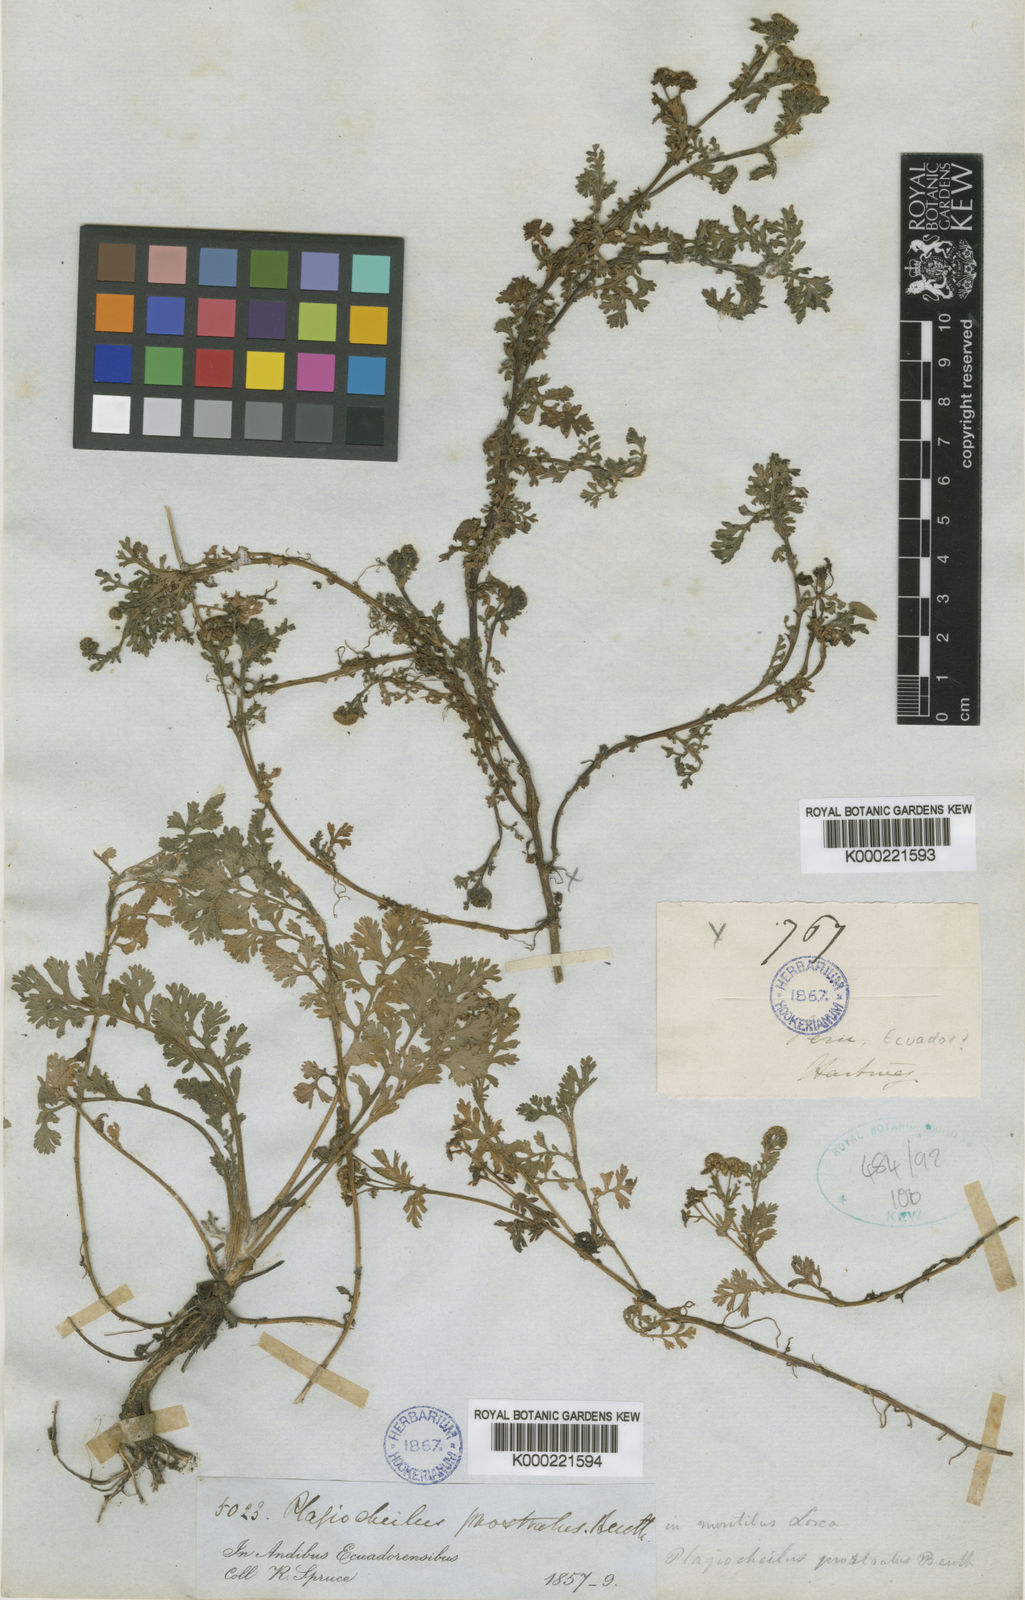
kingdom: Plantae
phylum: Tracheophyta
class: Magnoliopsida
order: Asterales
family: Asteraceae
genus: Plagiocheilus
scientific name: Plagiocheilus bogotensis
